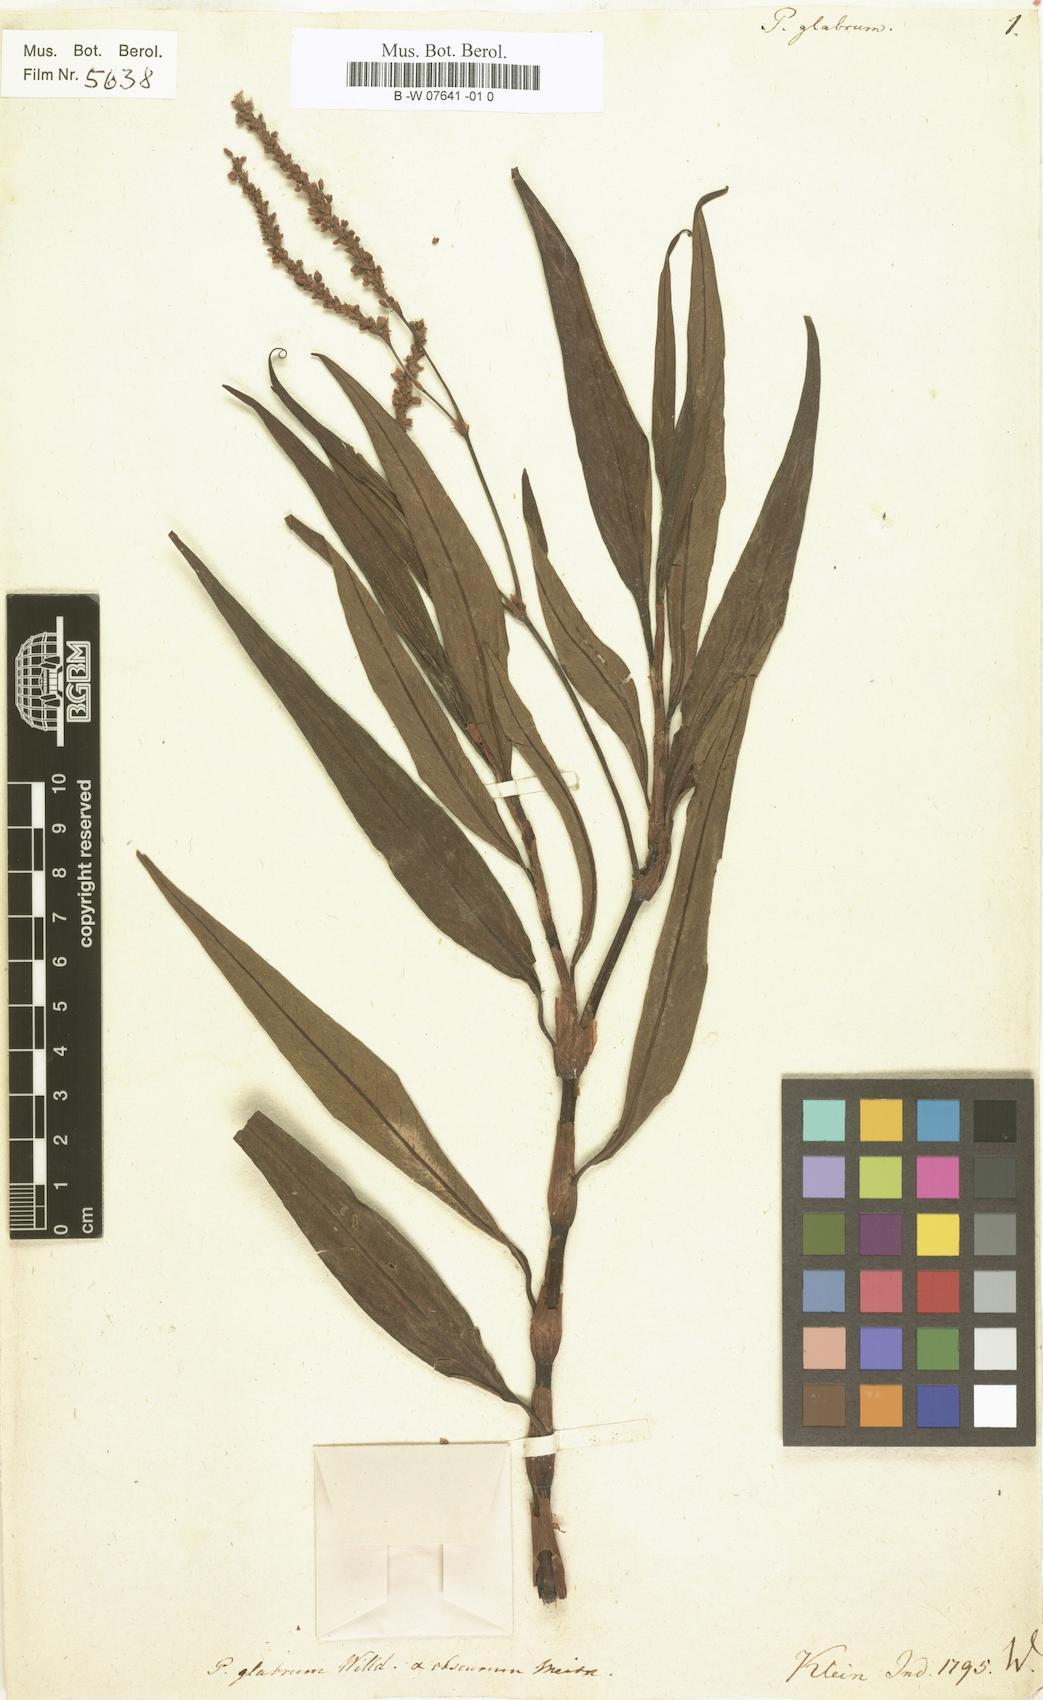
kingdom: Plantae
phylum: Tracheophyta
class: Magnoliopsida
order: Caryophyllales
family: Polygonaceae
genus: Persicaria
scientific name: Persicaria glabra
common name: Denseflower knotweed
